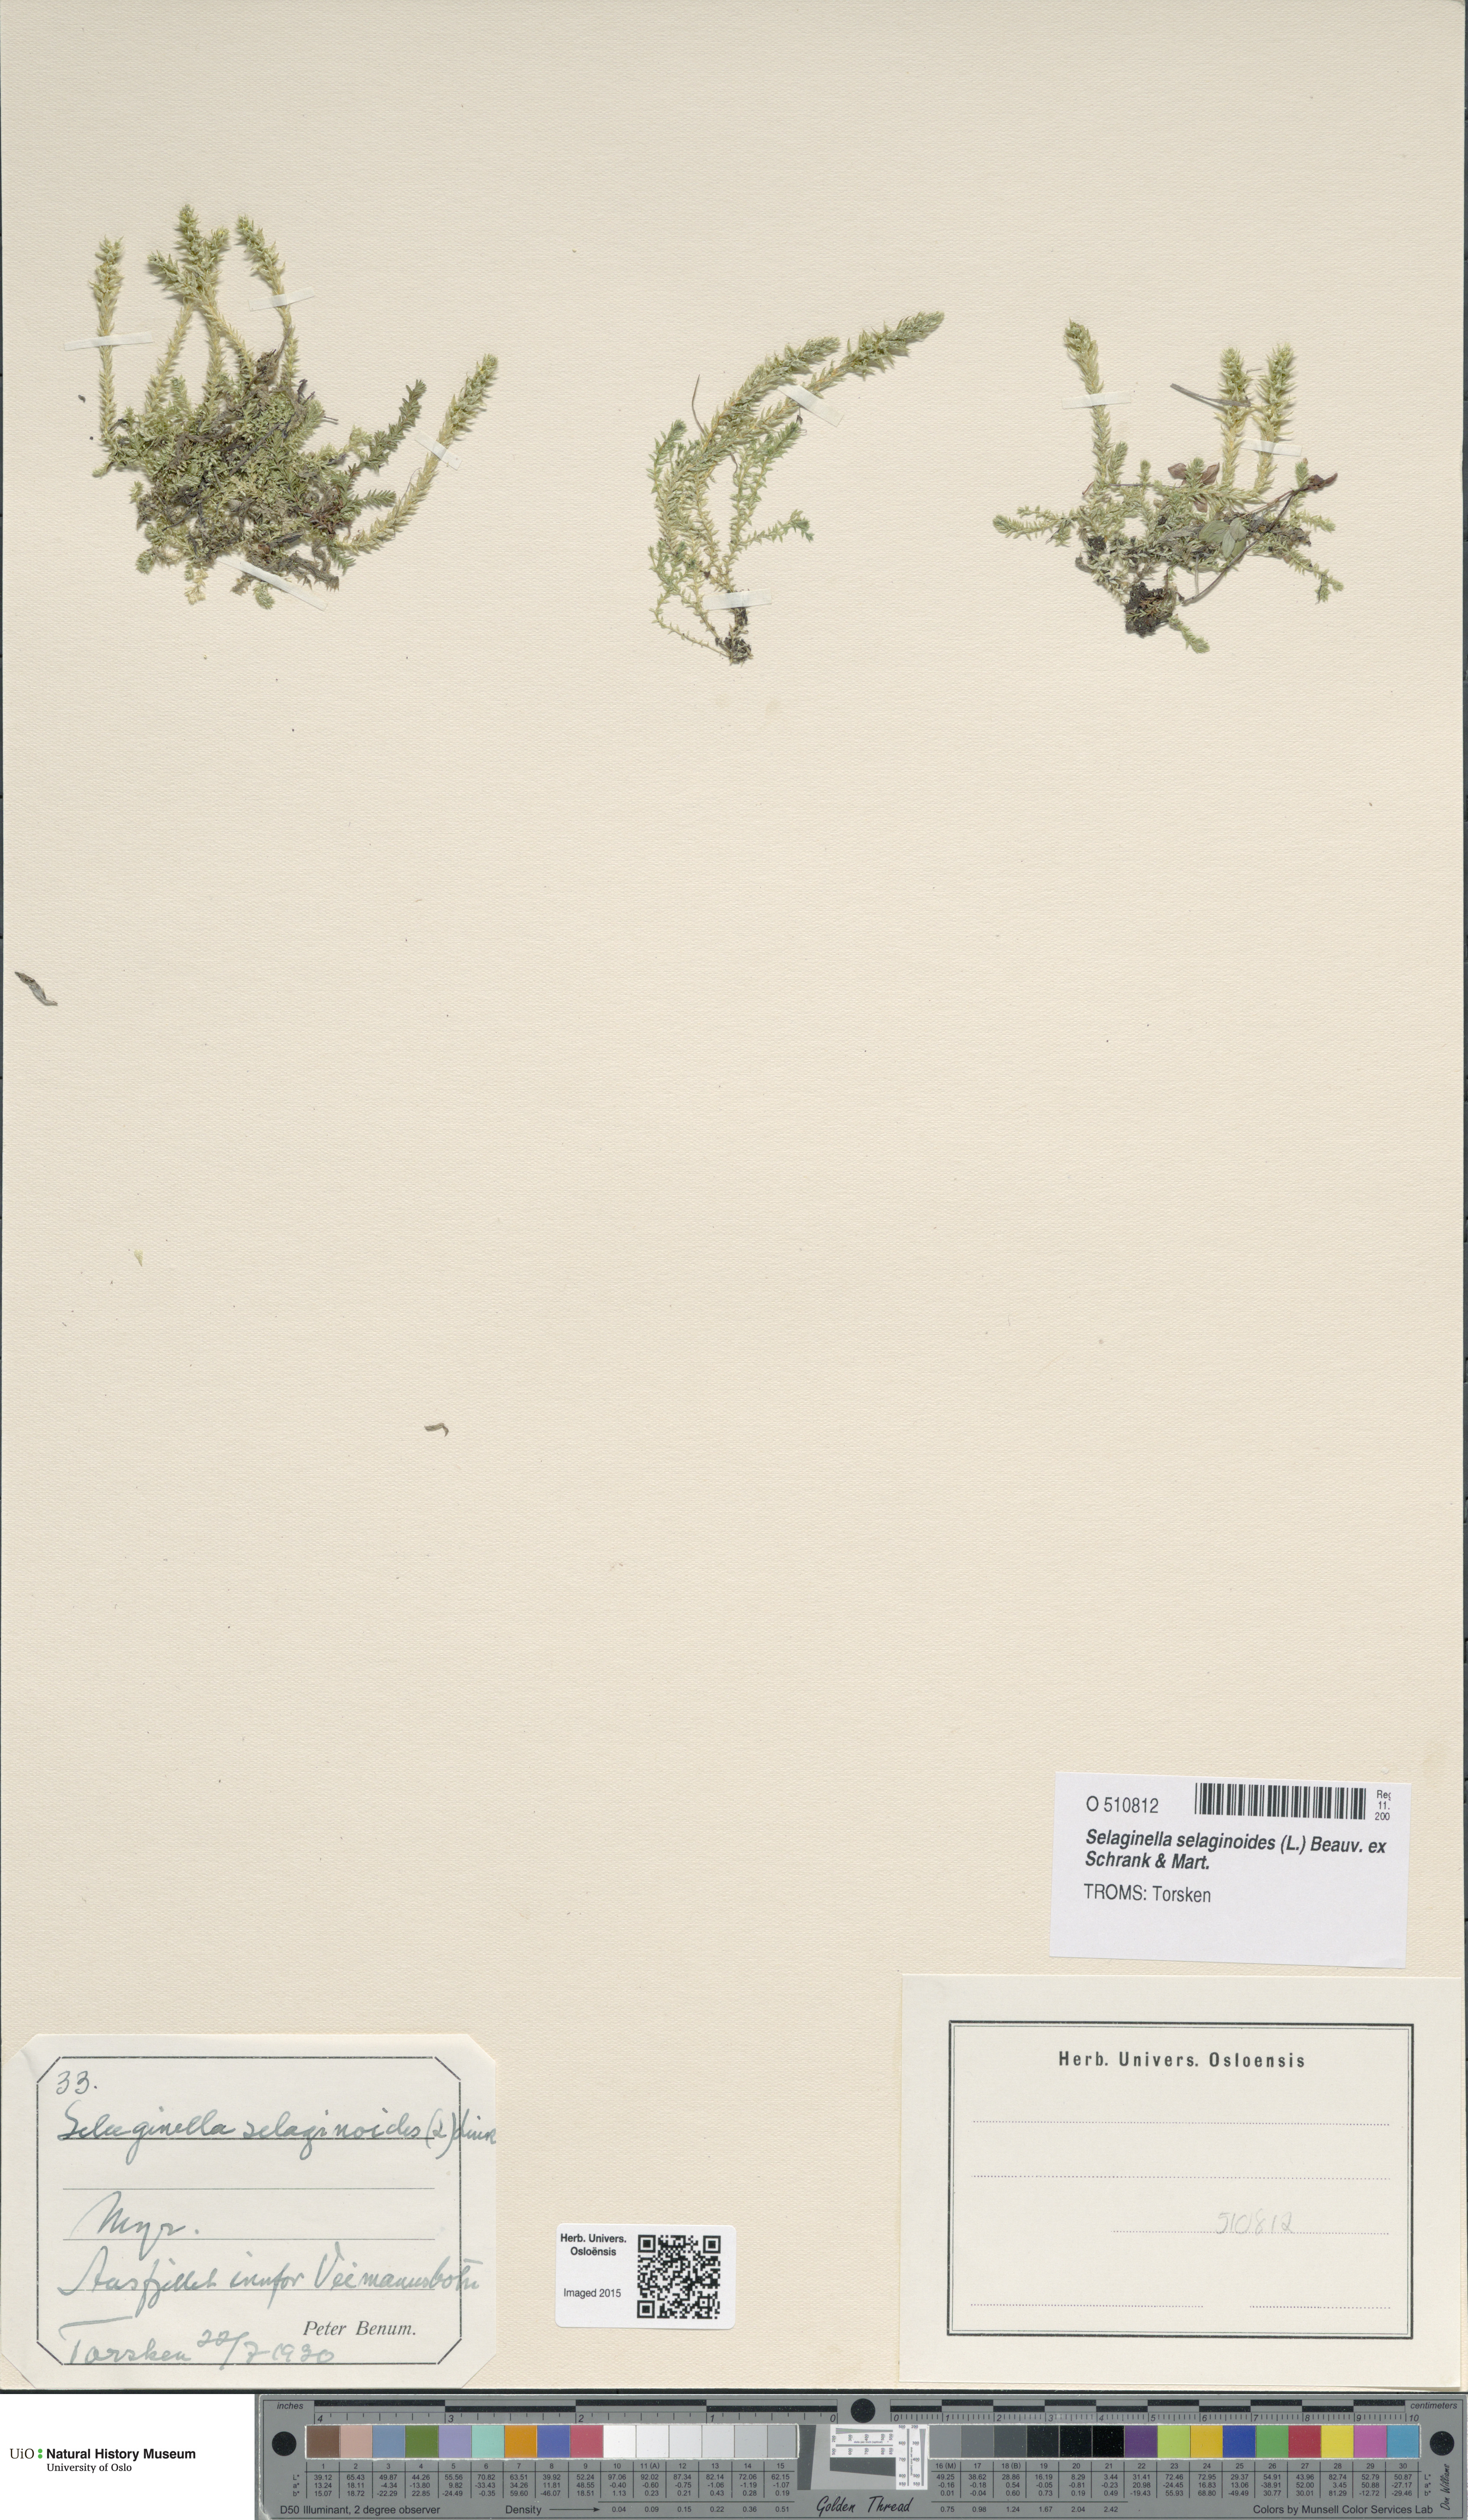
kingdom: Plantae
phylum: Tracheophyta
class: Lycopodiopsida
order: Selaginellales
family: Selaginellaceae
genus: Selaginella
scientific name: Selaginella selaginoides
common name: Prickly mountain-moss
